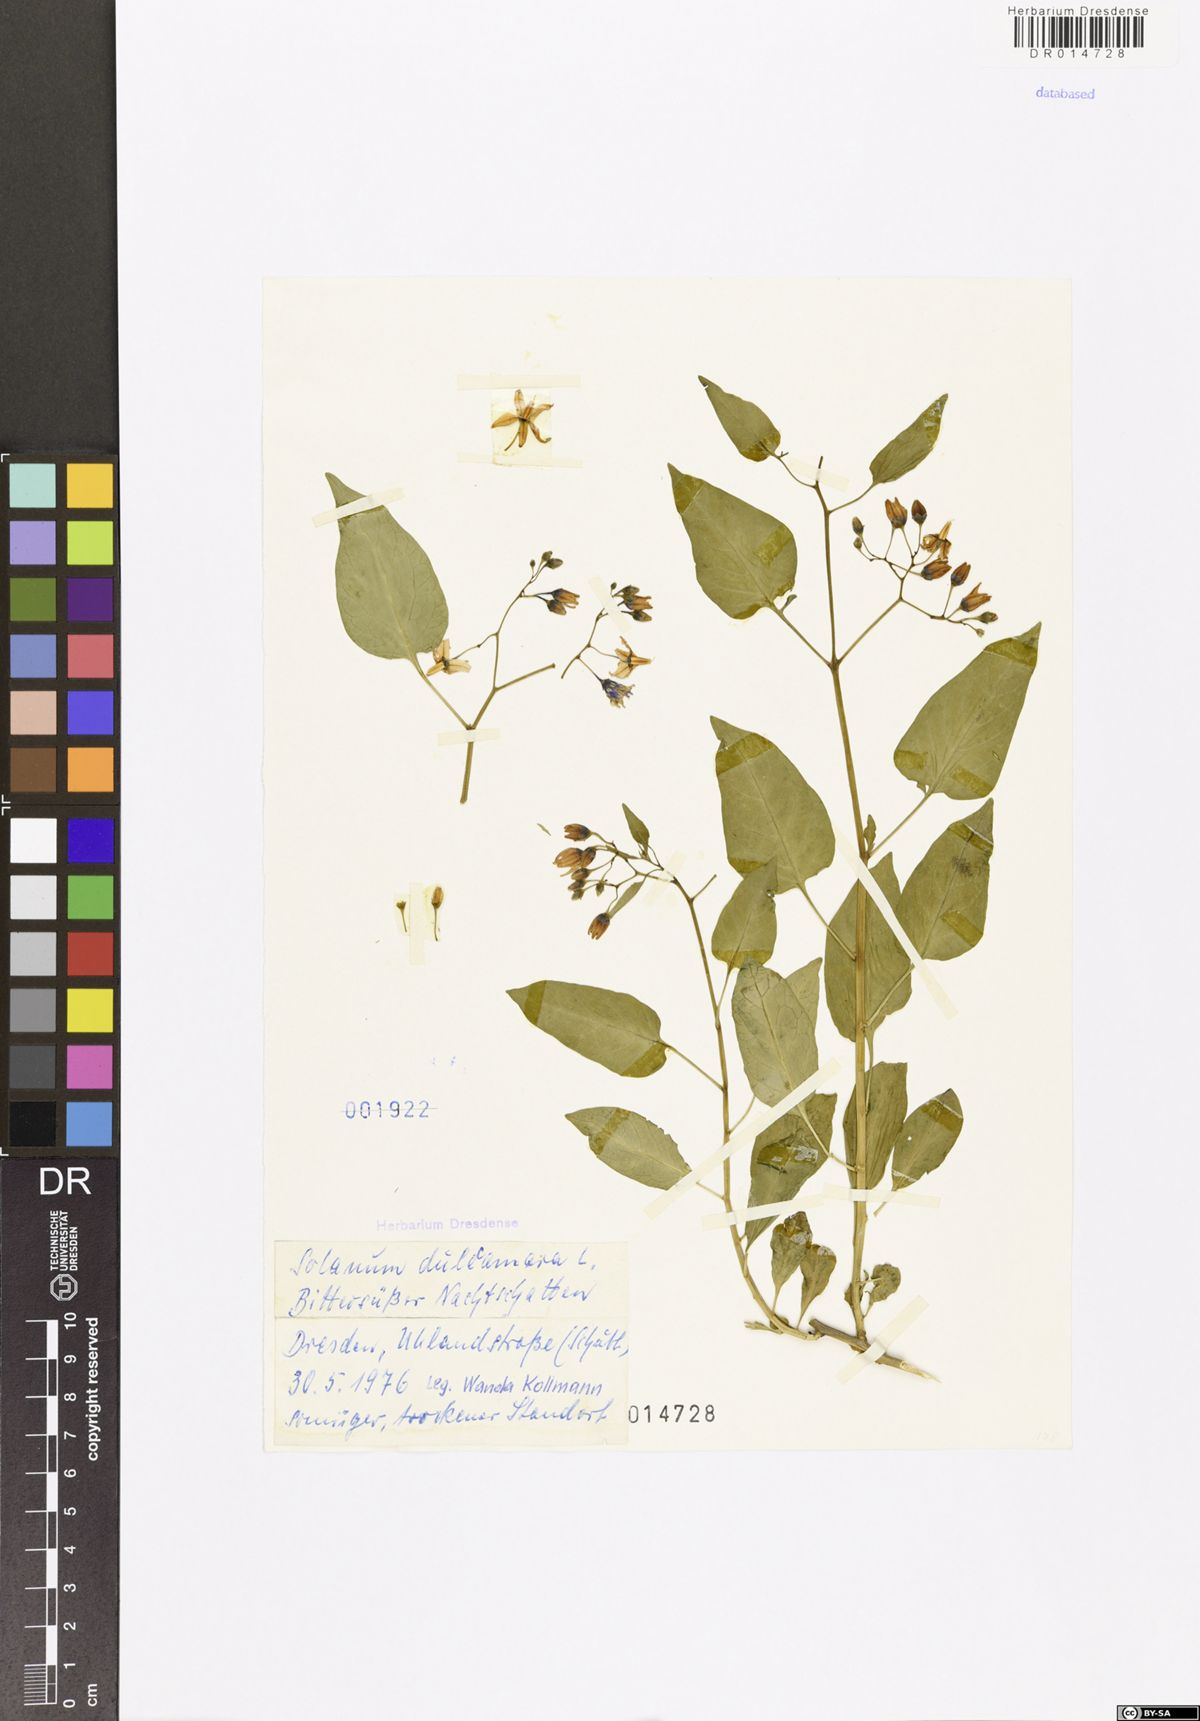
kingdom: Plantae
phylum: Tracheophyta
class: Magnoliopsida
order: Solanales
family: Solanaceae
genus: Solanum
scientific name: Solanum dulcamara
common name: Climbing nightshade
